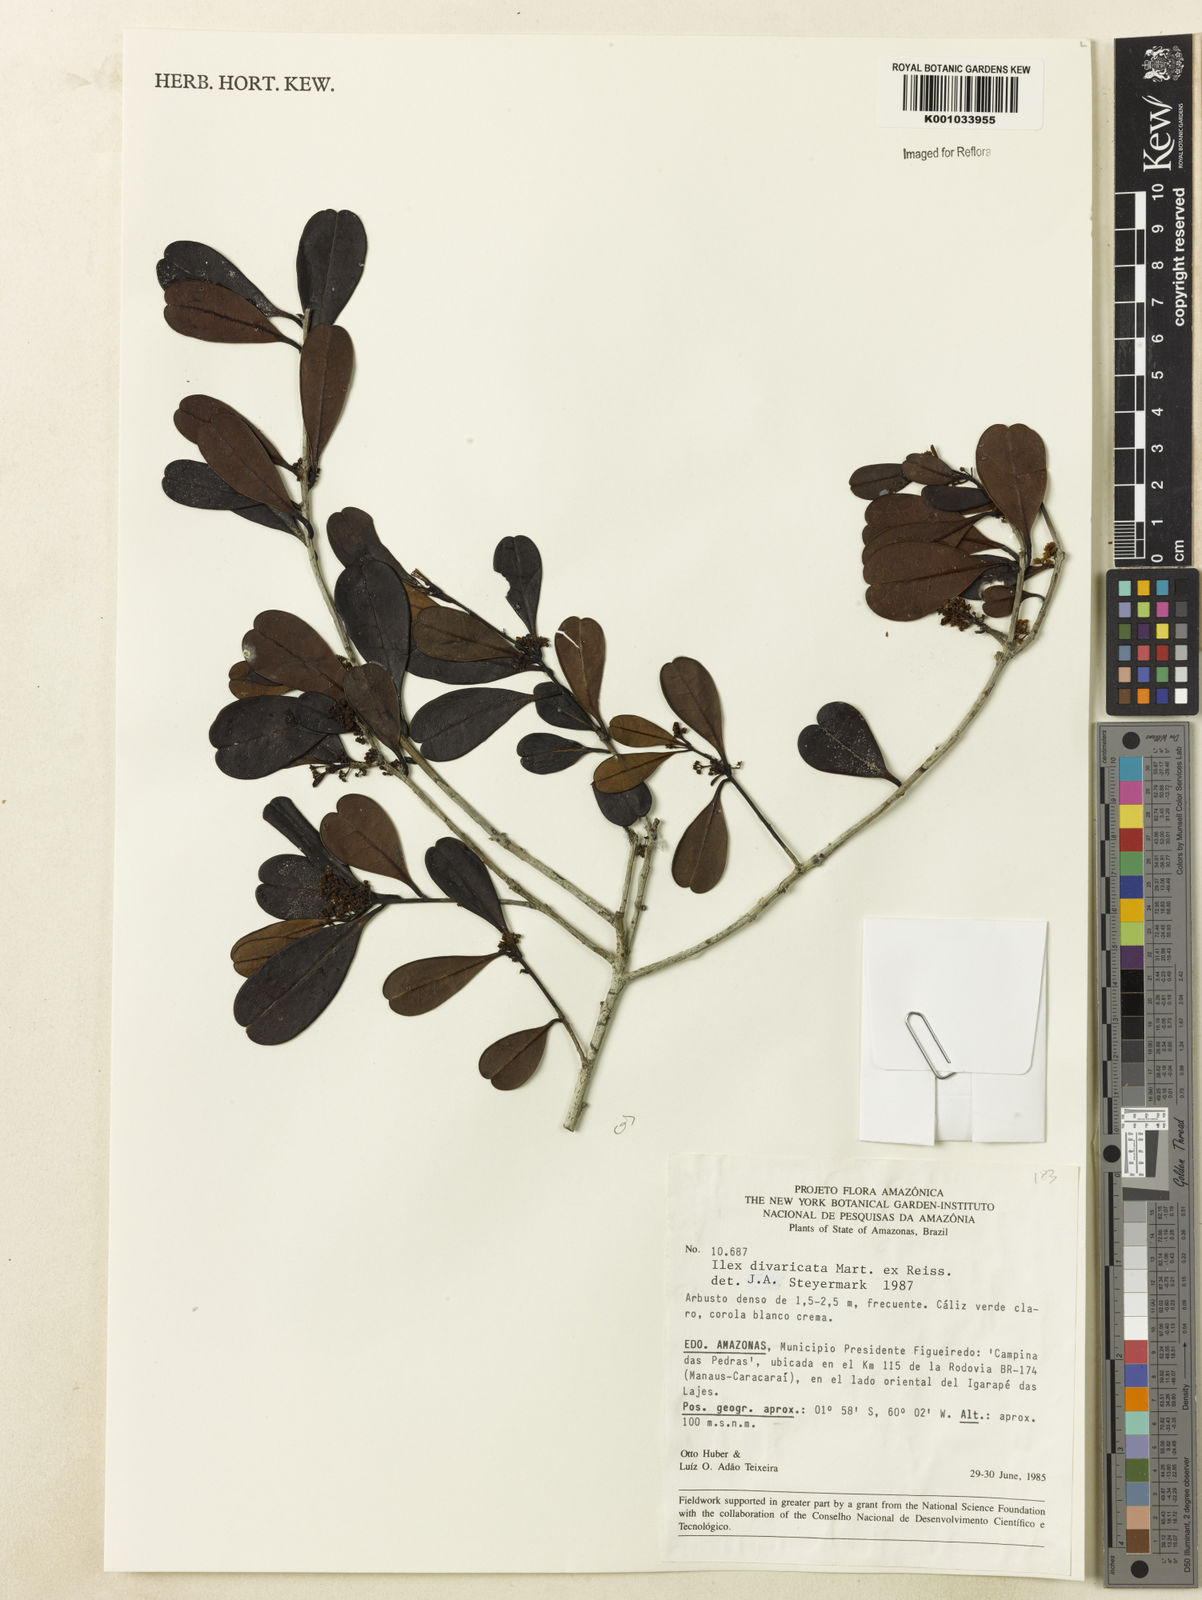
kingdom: Plantae
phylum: Tracheophyta
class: Magnoliopsida
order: Aquifoliales
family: Aquifoliaceae
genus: Ilex
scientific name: Ilex divaricata
